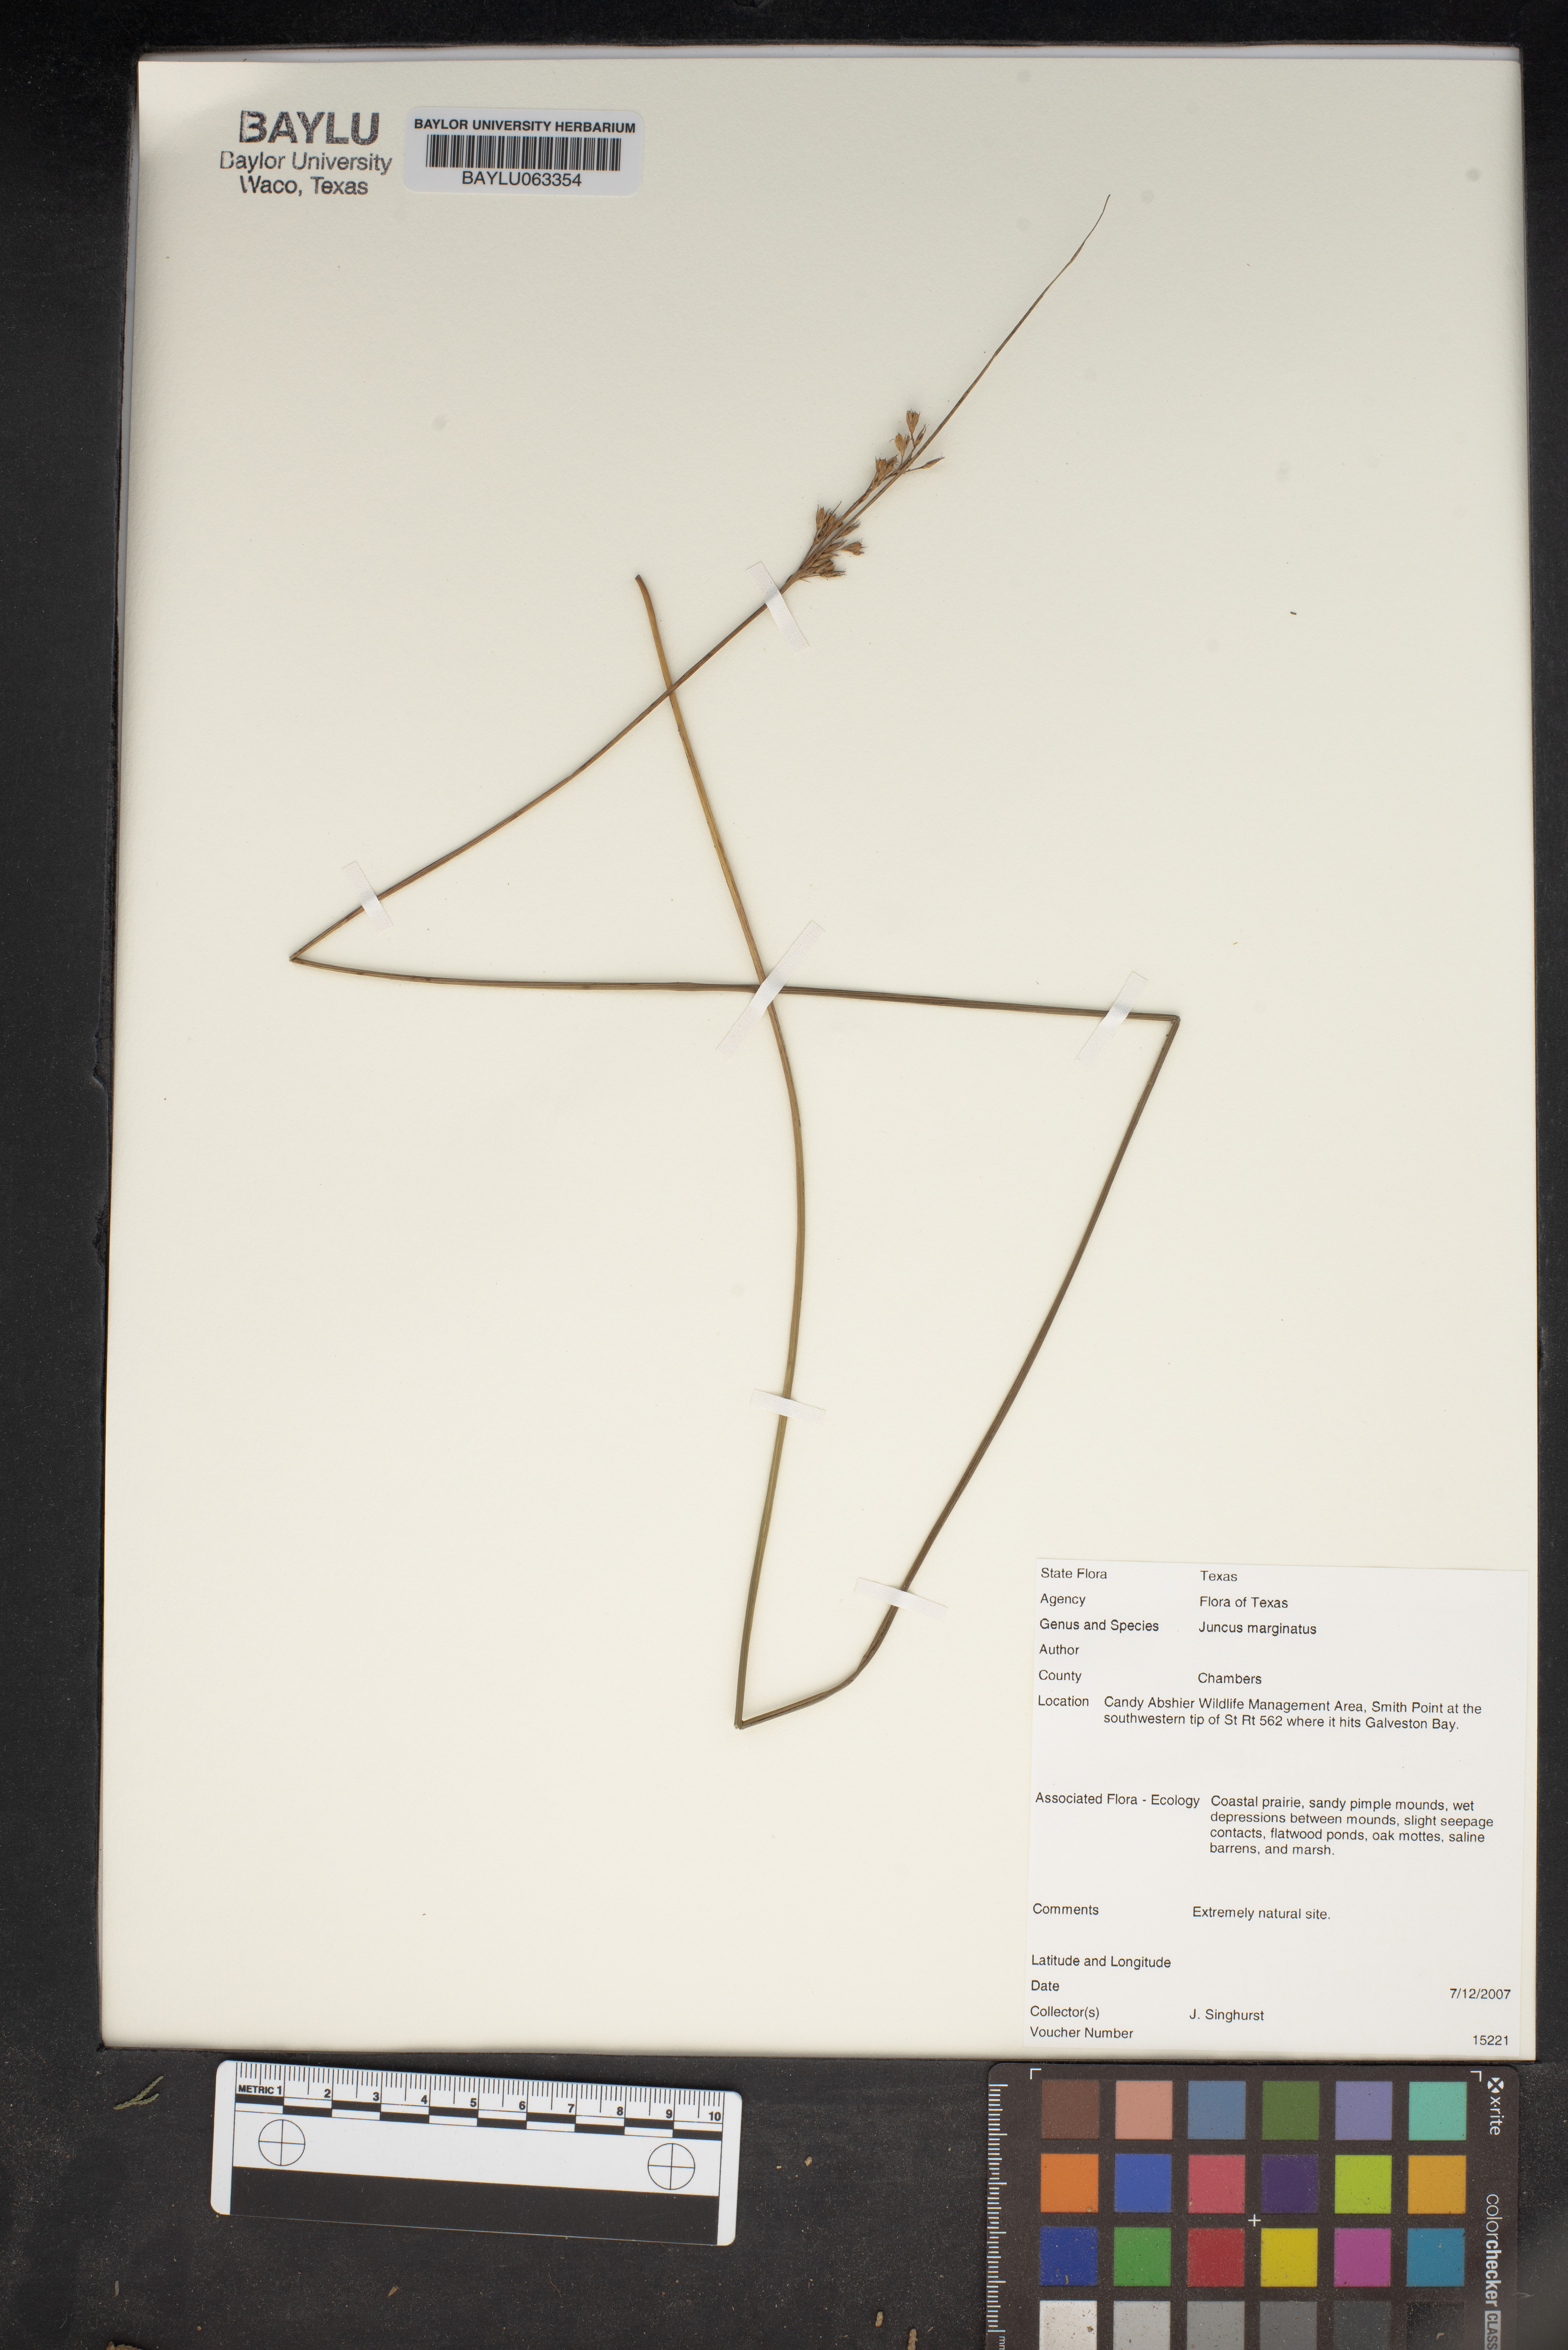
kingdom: Plantae
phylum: Tracheophyta
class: Liliopsida
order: Poales
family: Juncaceae
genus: Juncus
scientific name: Juncus marginatus
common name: Grass-leaf rush
